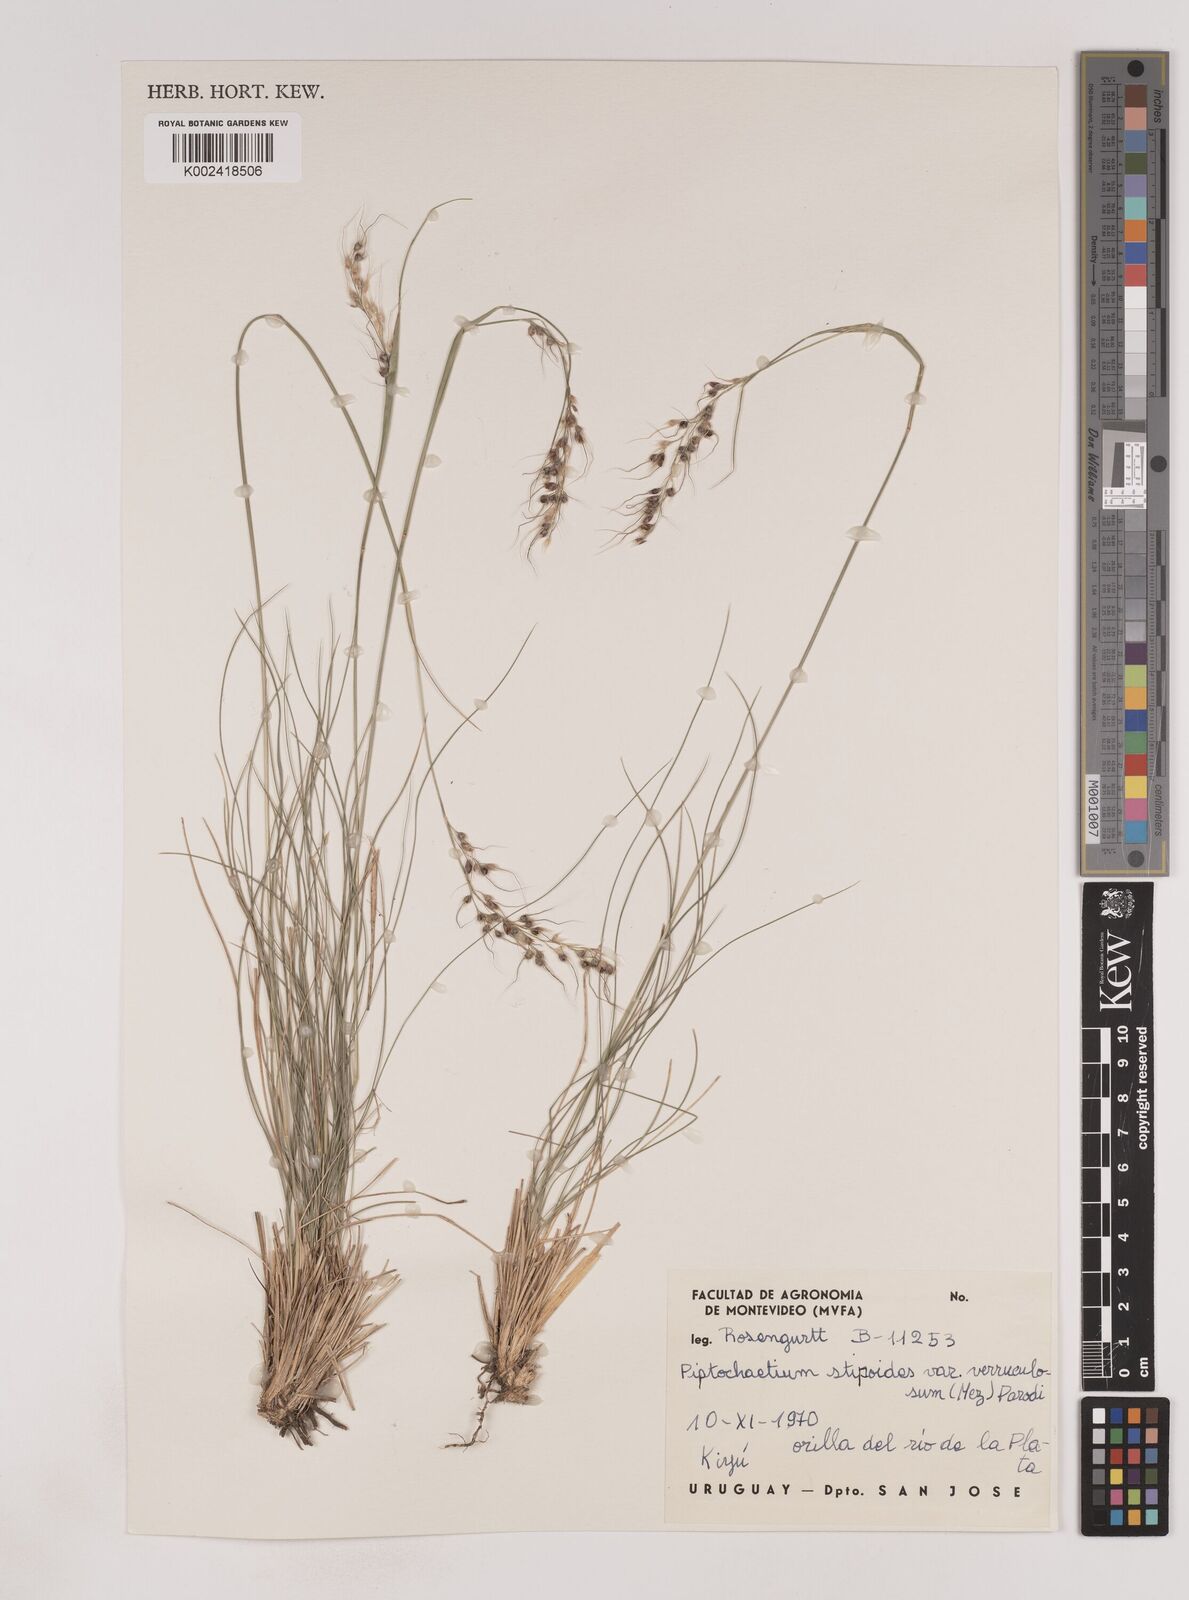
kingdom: Plantae
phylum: Tracheophyta
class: Liliopsida
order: Poales
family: Poaceae
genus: Piptochaetium
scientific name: Piptochaetium stipoides
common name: Purple speargrass
